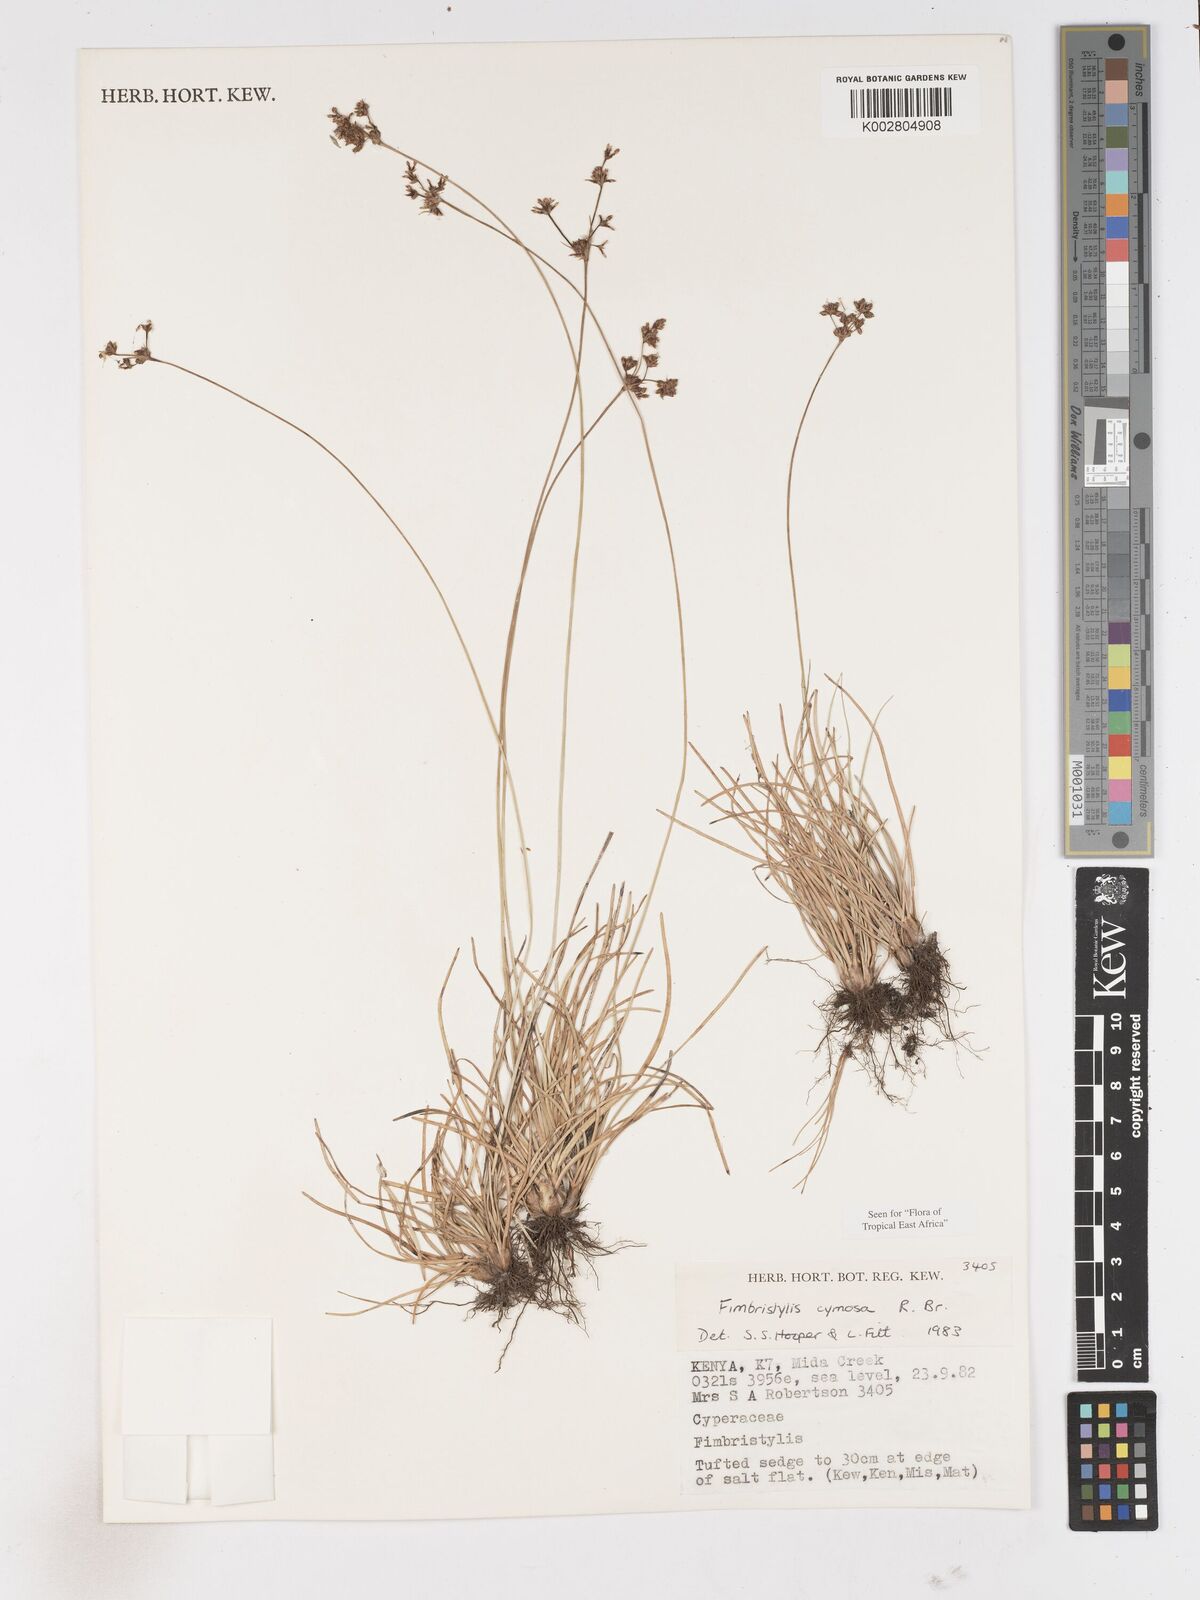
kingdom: Plantae
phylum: Tracheophyta
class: Liliopsida
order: Poales
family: Cyperaceae
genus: Fimbristylis
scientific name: Fimbristylis cymosa
